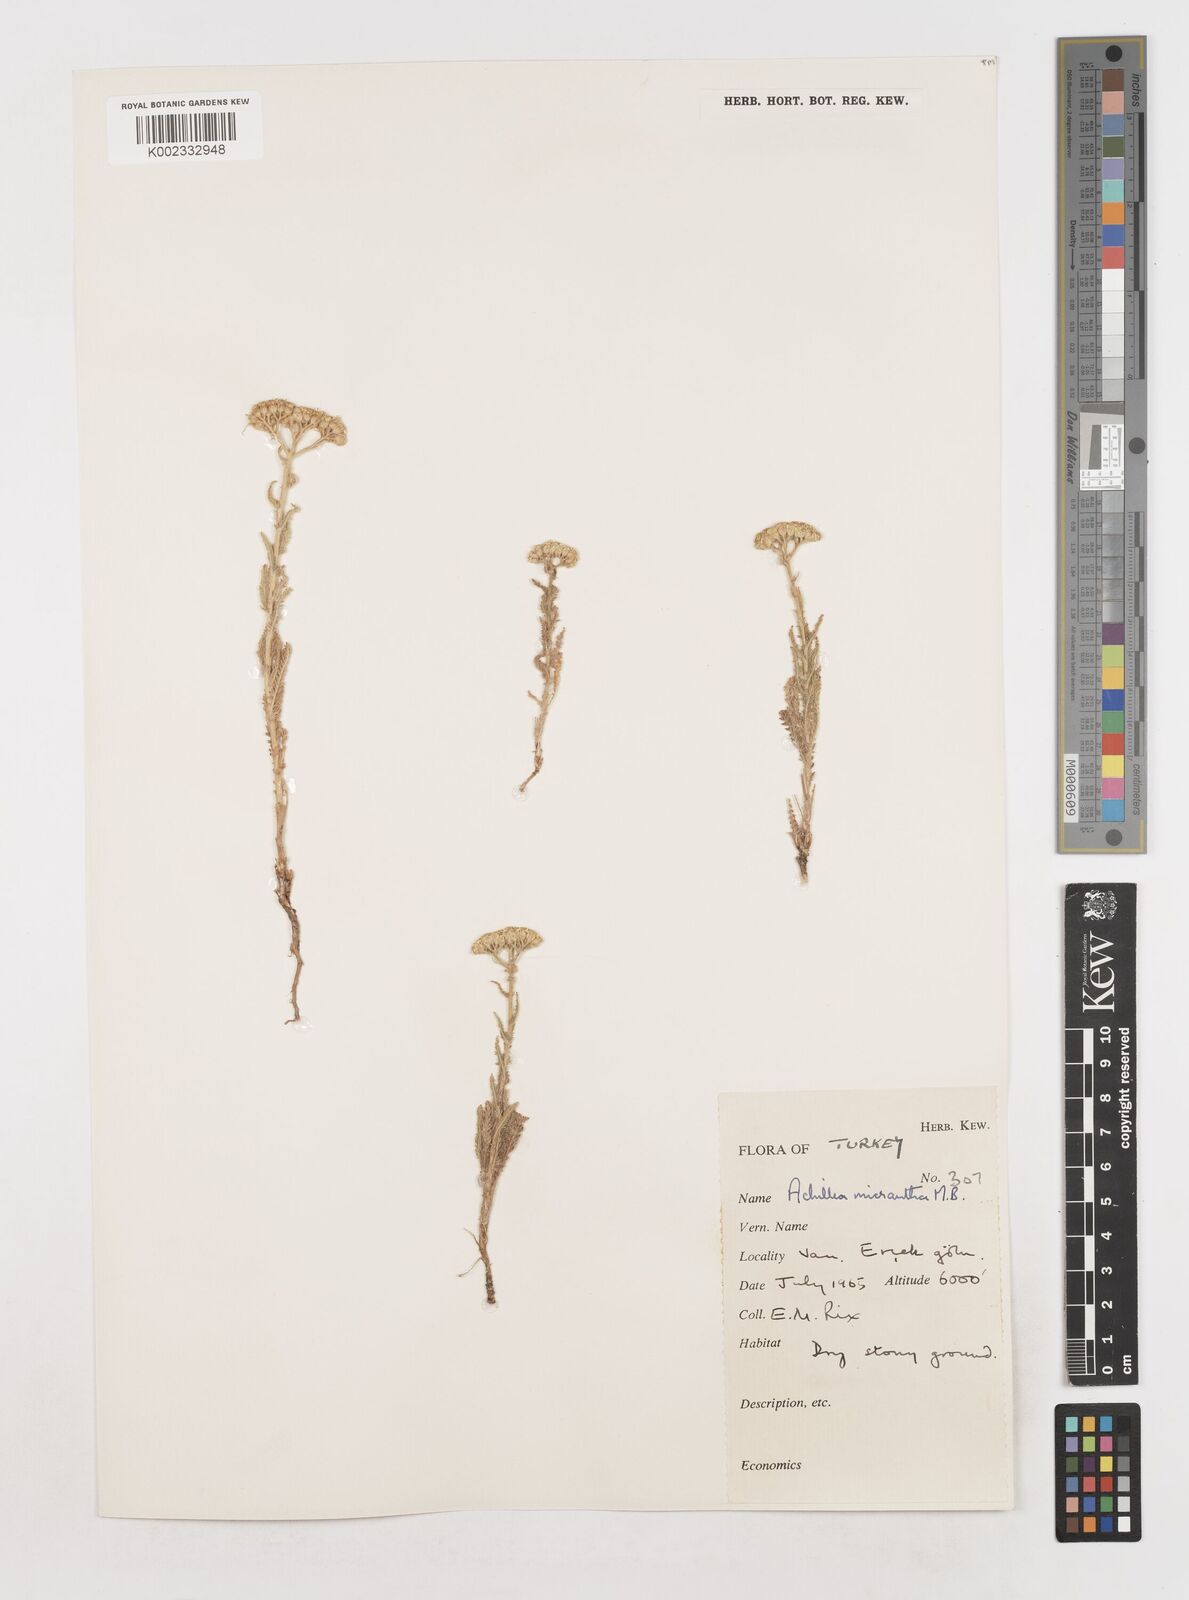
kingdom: Plantae
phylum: Tracheophyta
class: Magnoliopsida
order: Asterales
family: Asteraceae
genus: Achillea
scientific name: Achillea arabica
